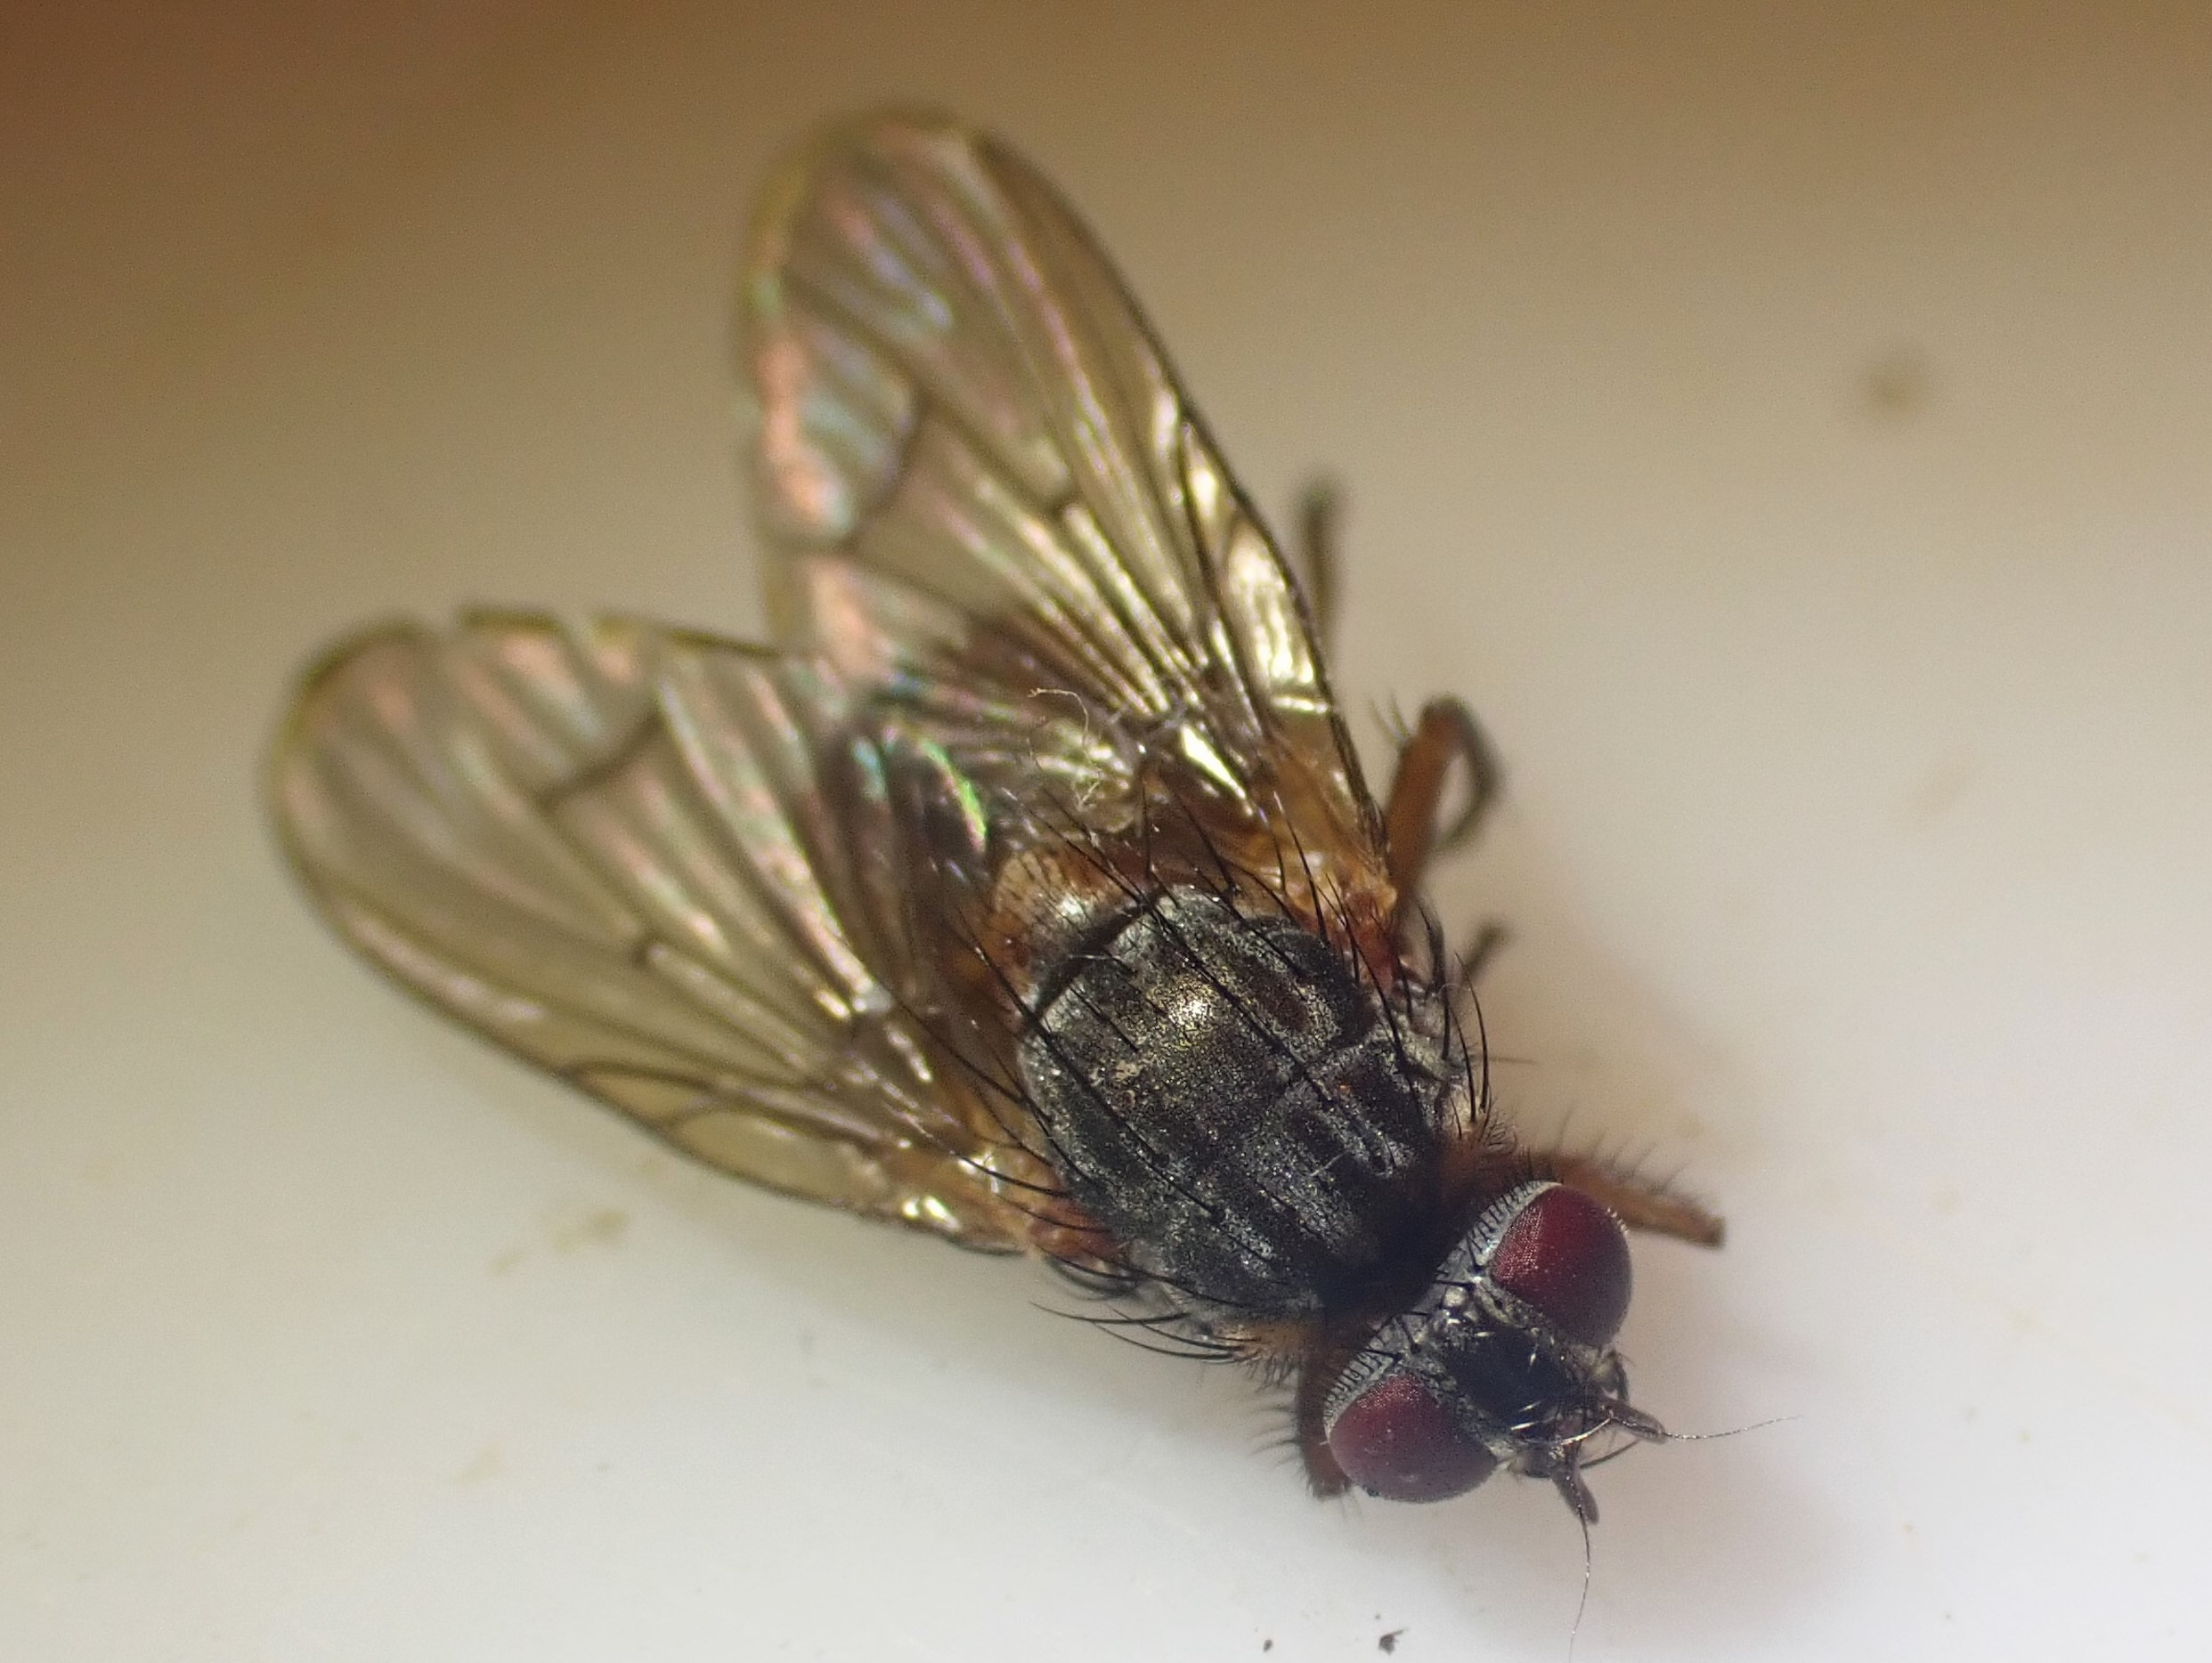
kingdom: Animalia
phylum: Arthropoda
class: Insecta
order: Diptera
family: Muscidae
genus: Phaonia
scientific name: Phaonia subventa
